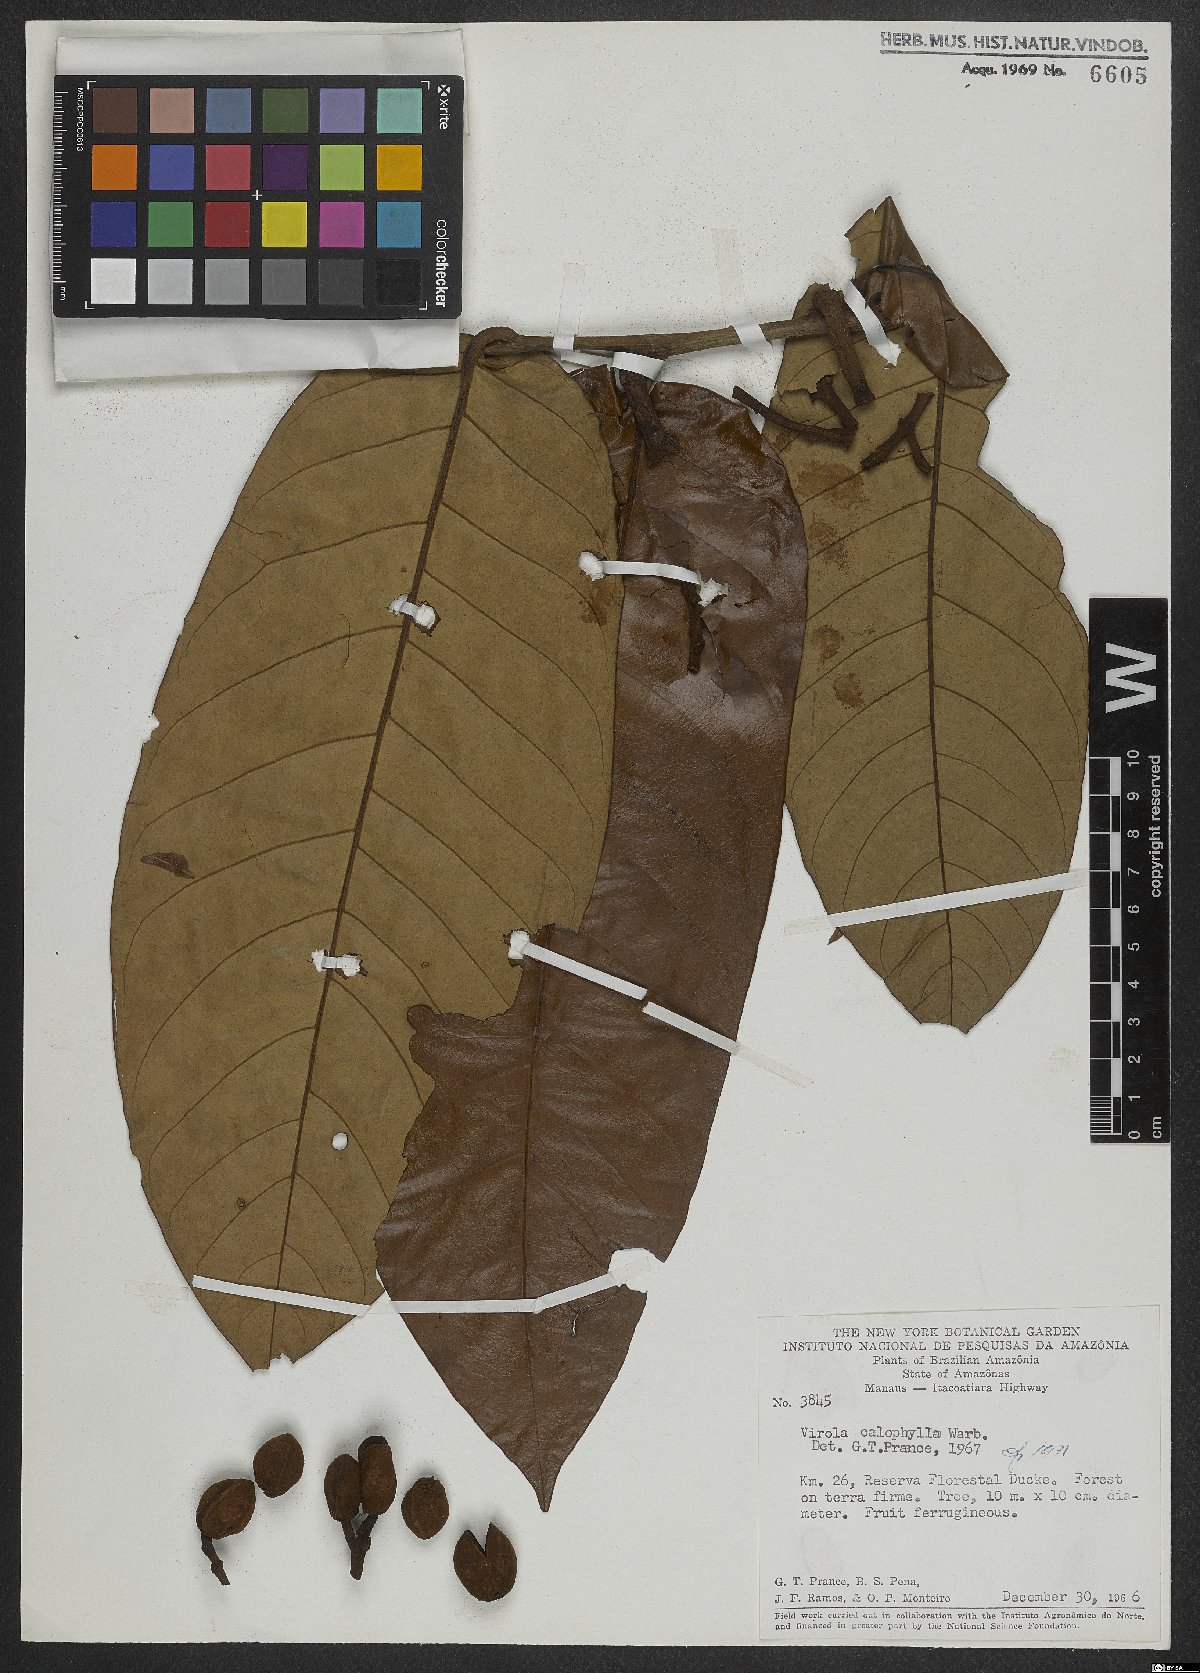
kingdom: Plantae
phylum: Tracheophyta
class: Magnoliopsida
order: Magnoliales
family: Myristicaceae
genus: Virola
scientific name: Virola calophylla
